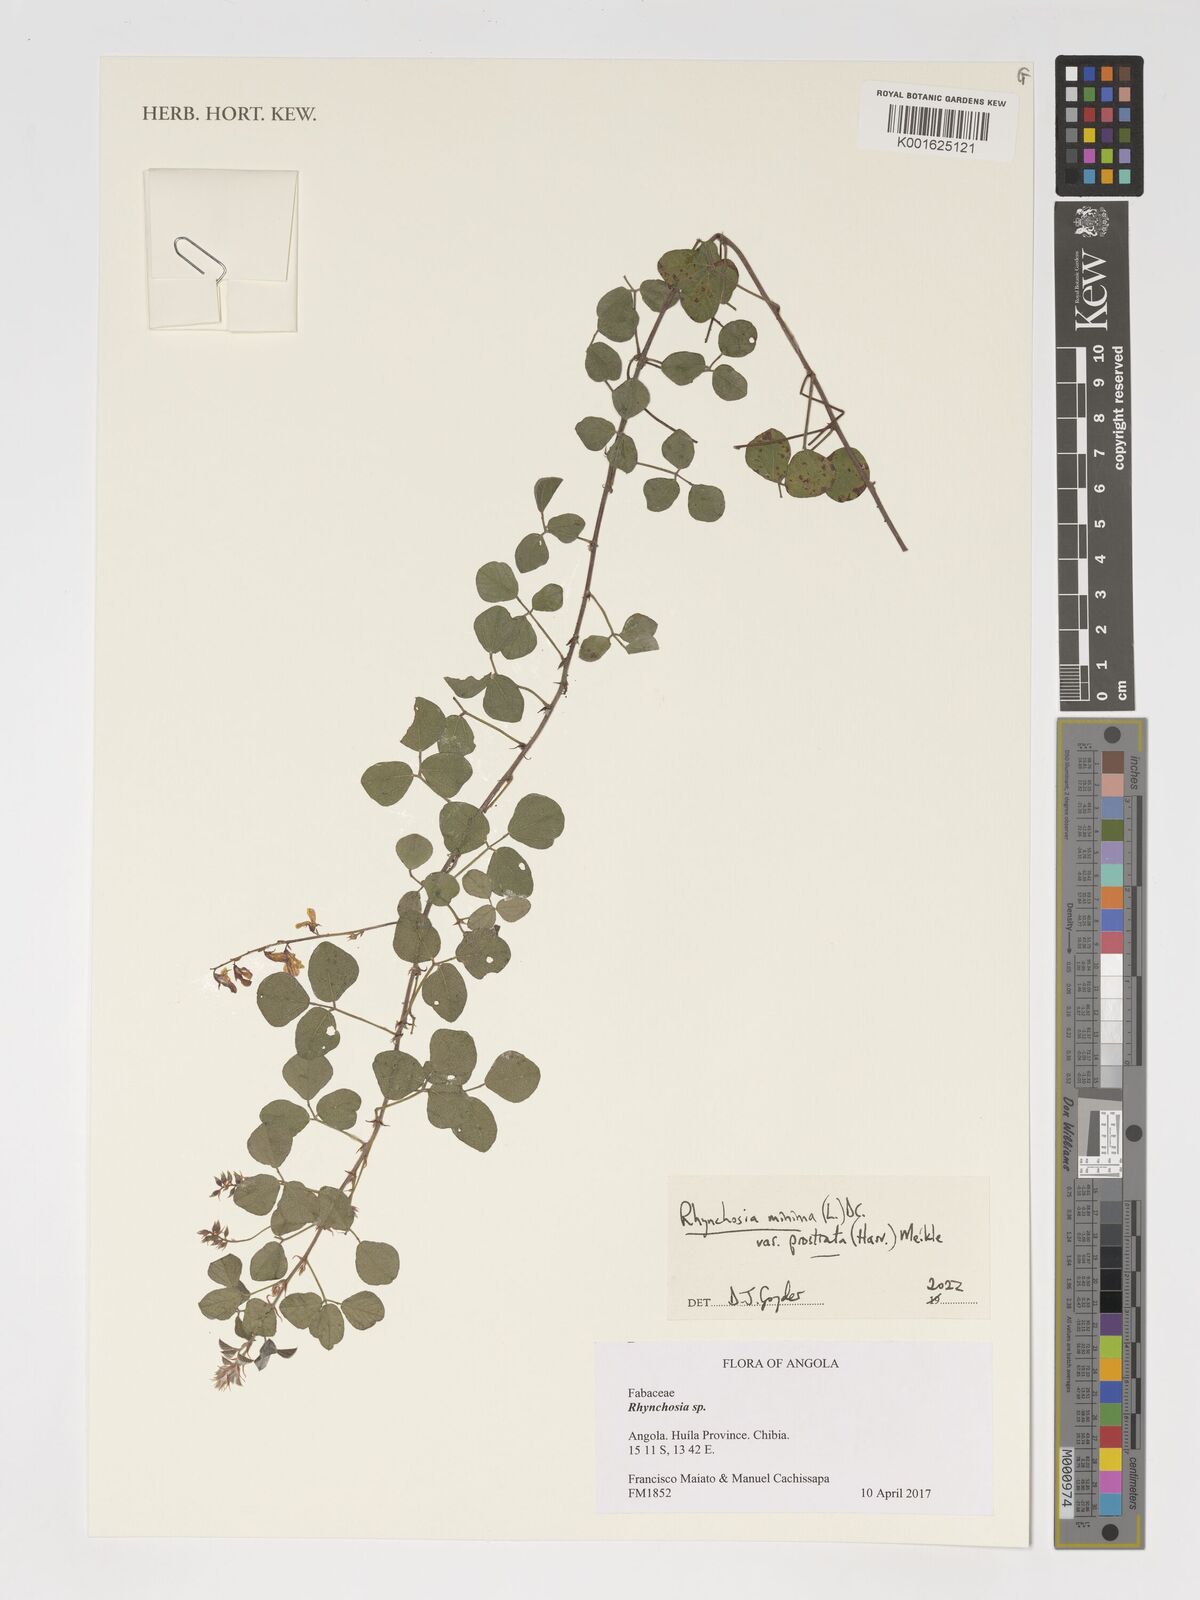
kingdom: Plantae
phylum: Tracheophyta
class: Magnoliopsida
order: Fabales
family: Fabaceae
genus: Rhynchosia
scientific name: Rhynchosia minima
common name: Least snoutbean
